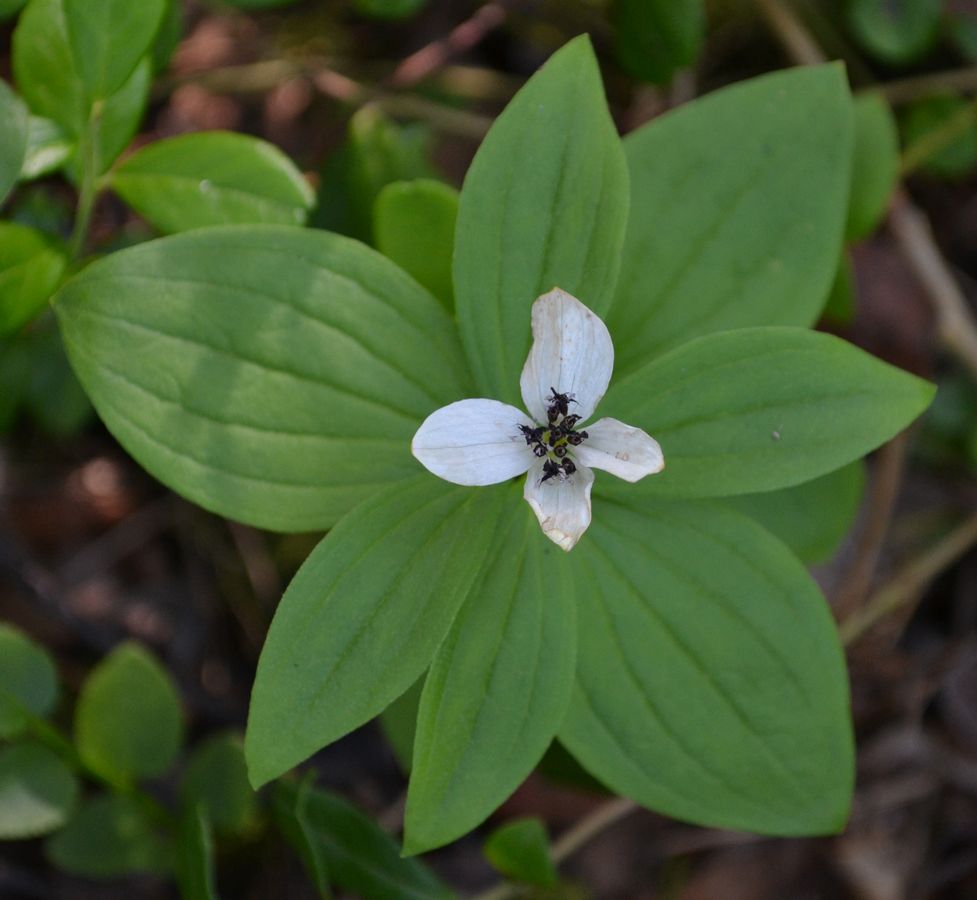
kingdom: Plantae
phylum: Tracheophyta
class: Magnoliopsida
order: Cornales
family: Cornaceae
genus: Cornus
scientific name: Cornus suecica
